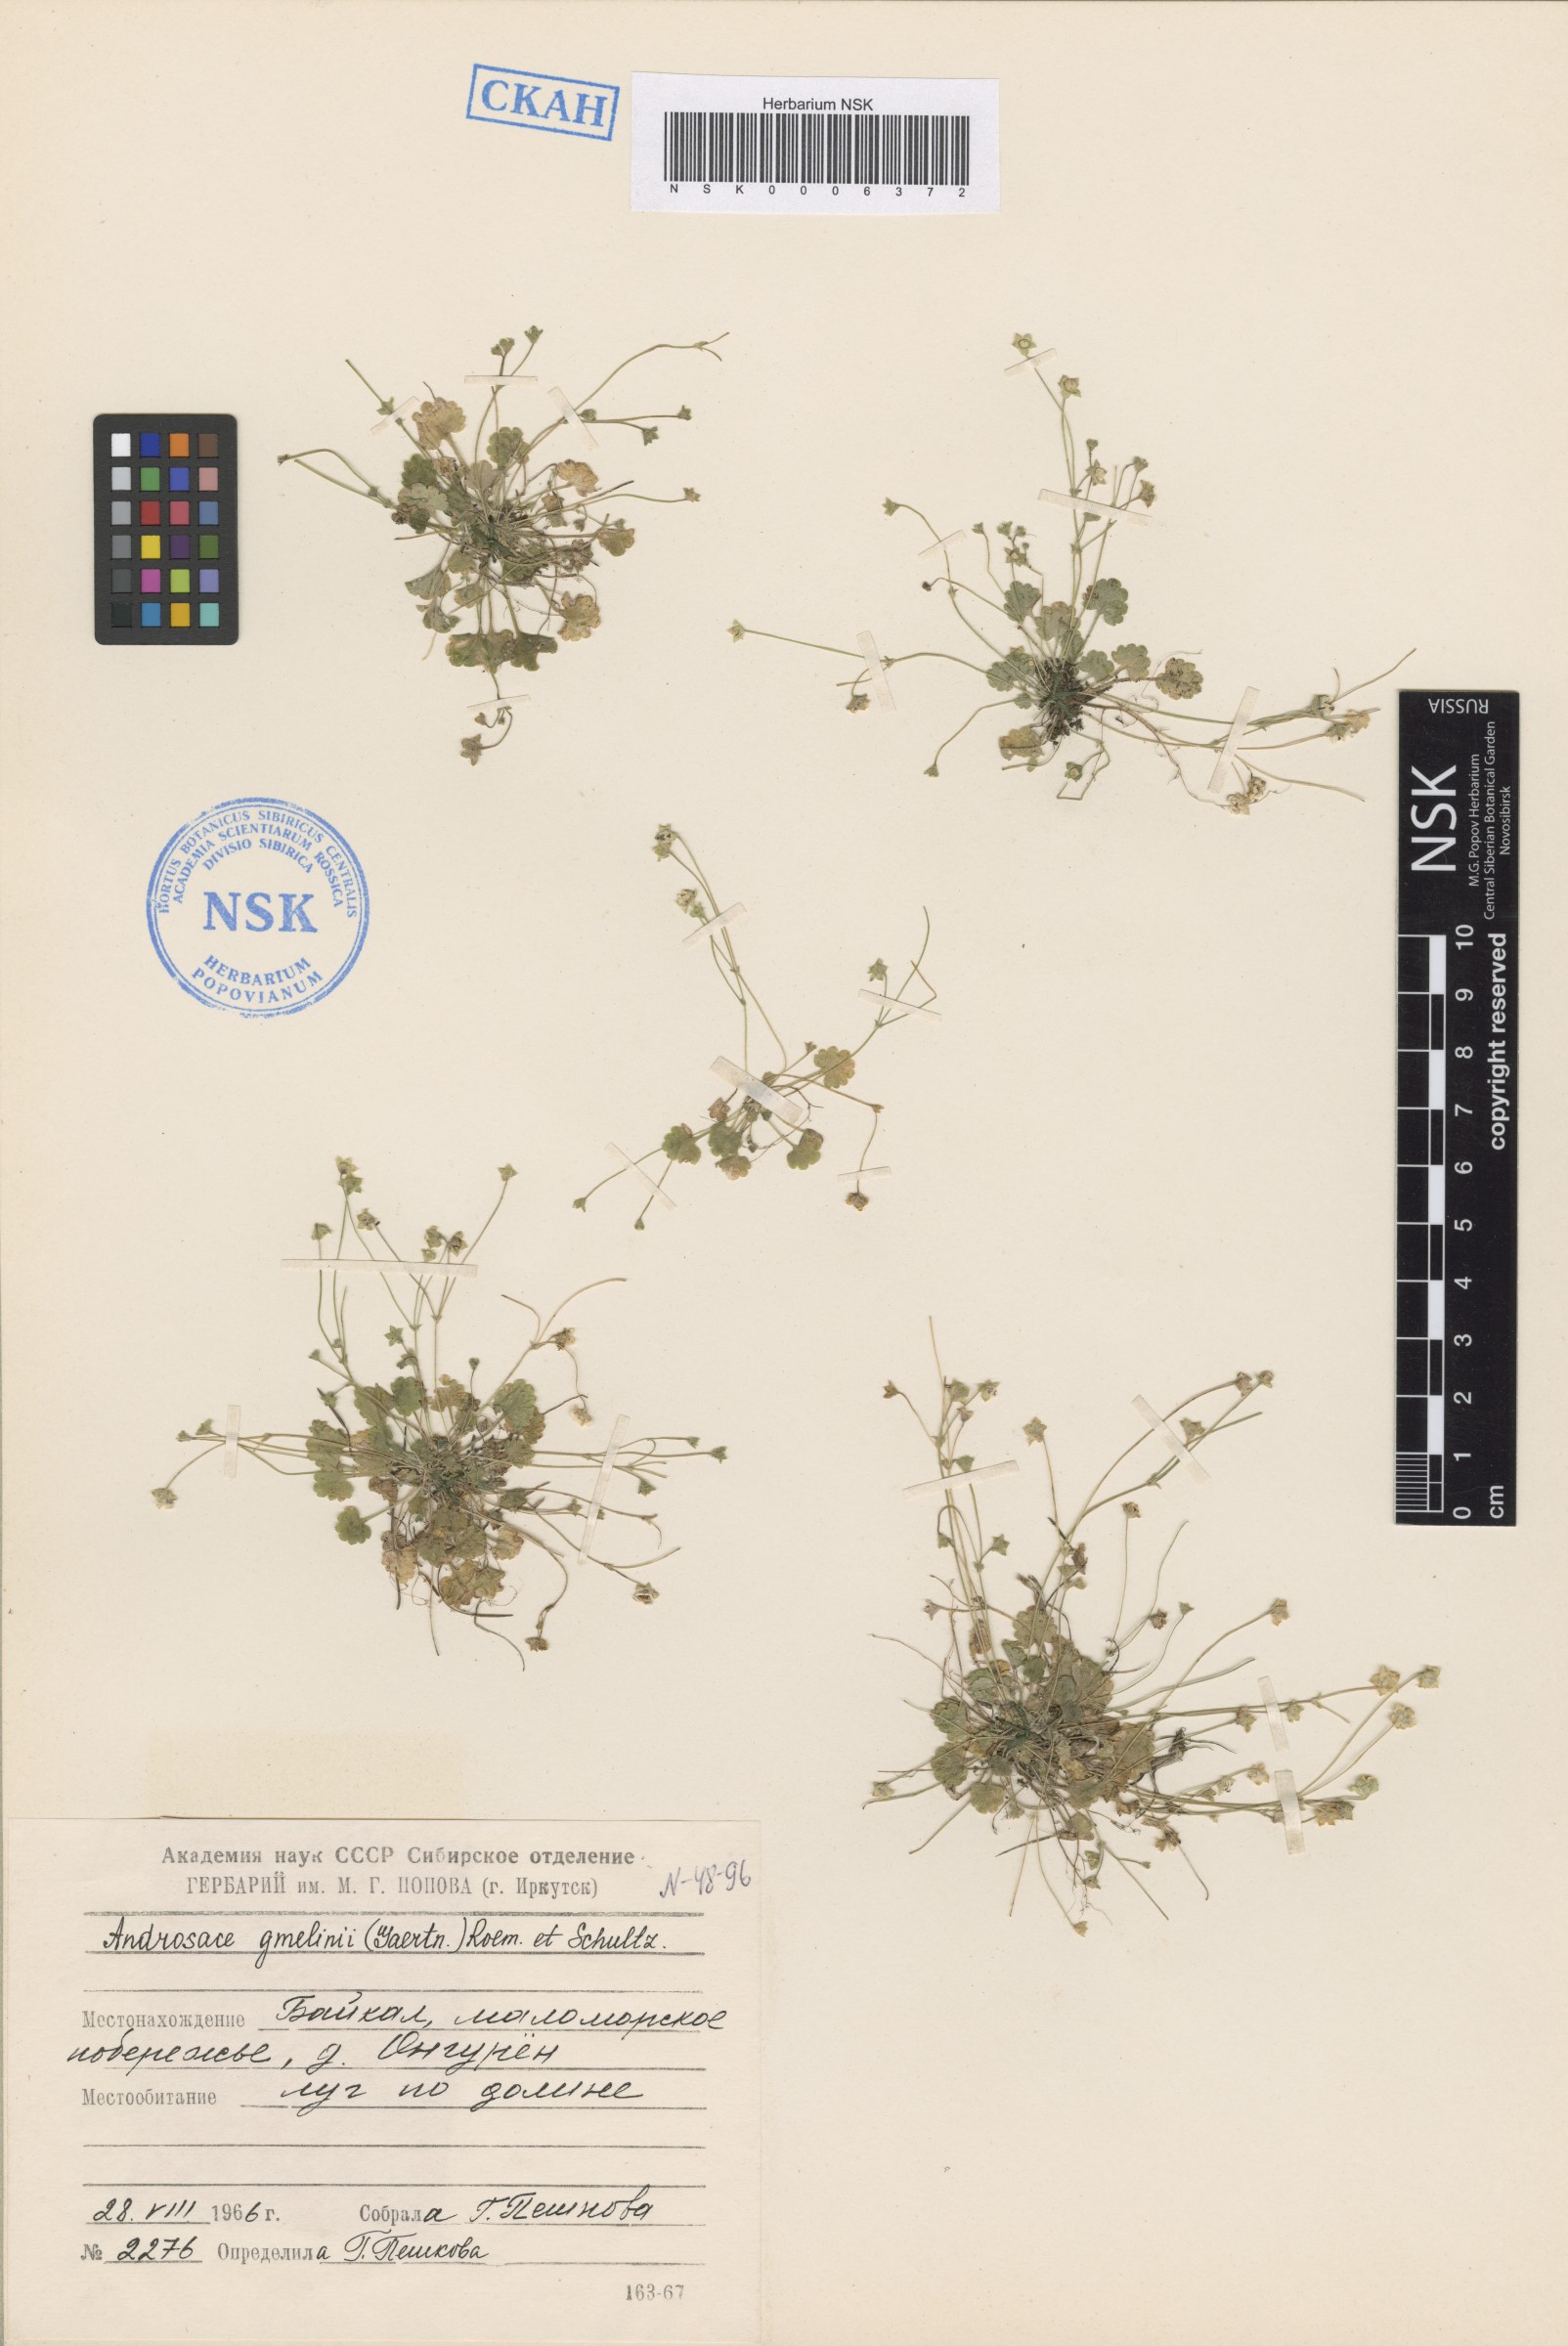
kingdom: Plantae
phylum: Tracheophyta
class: Magnoliopsida
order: Ericales
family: Primulaceae
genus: Androsace
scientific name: Androsace gmelinii
